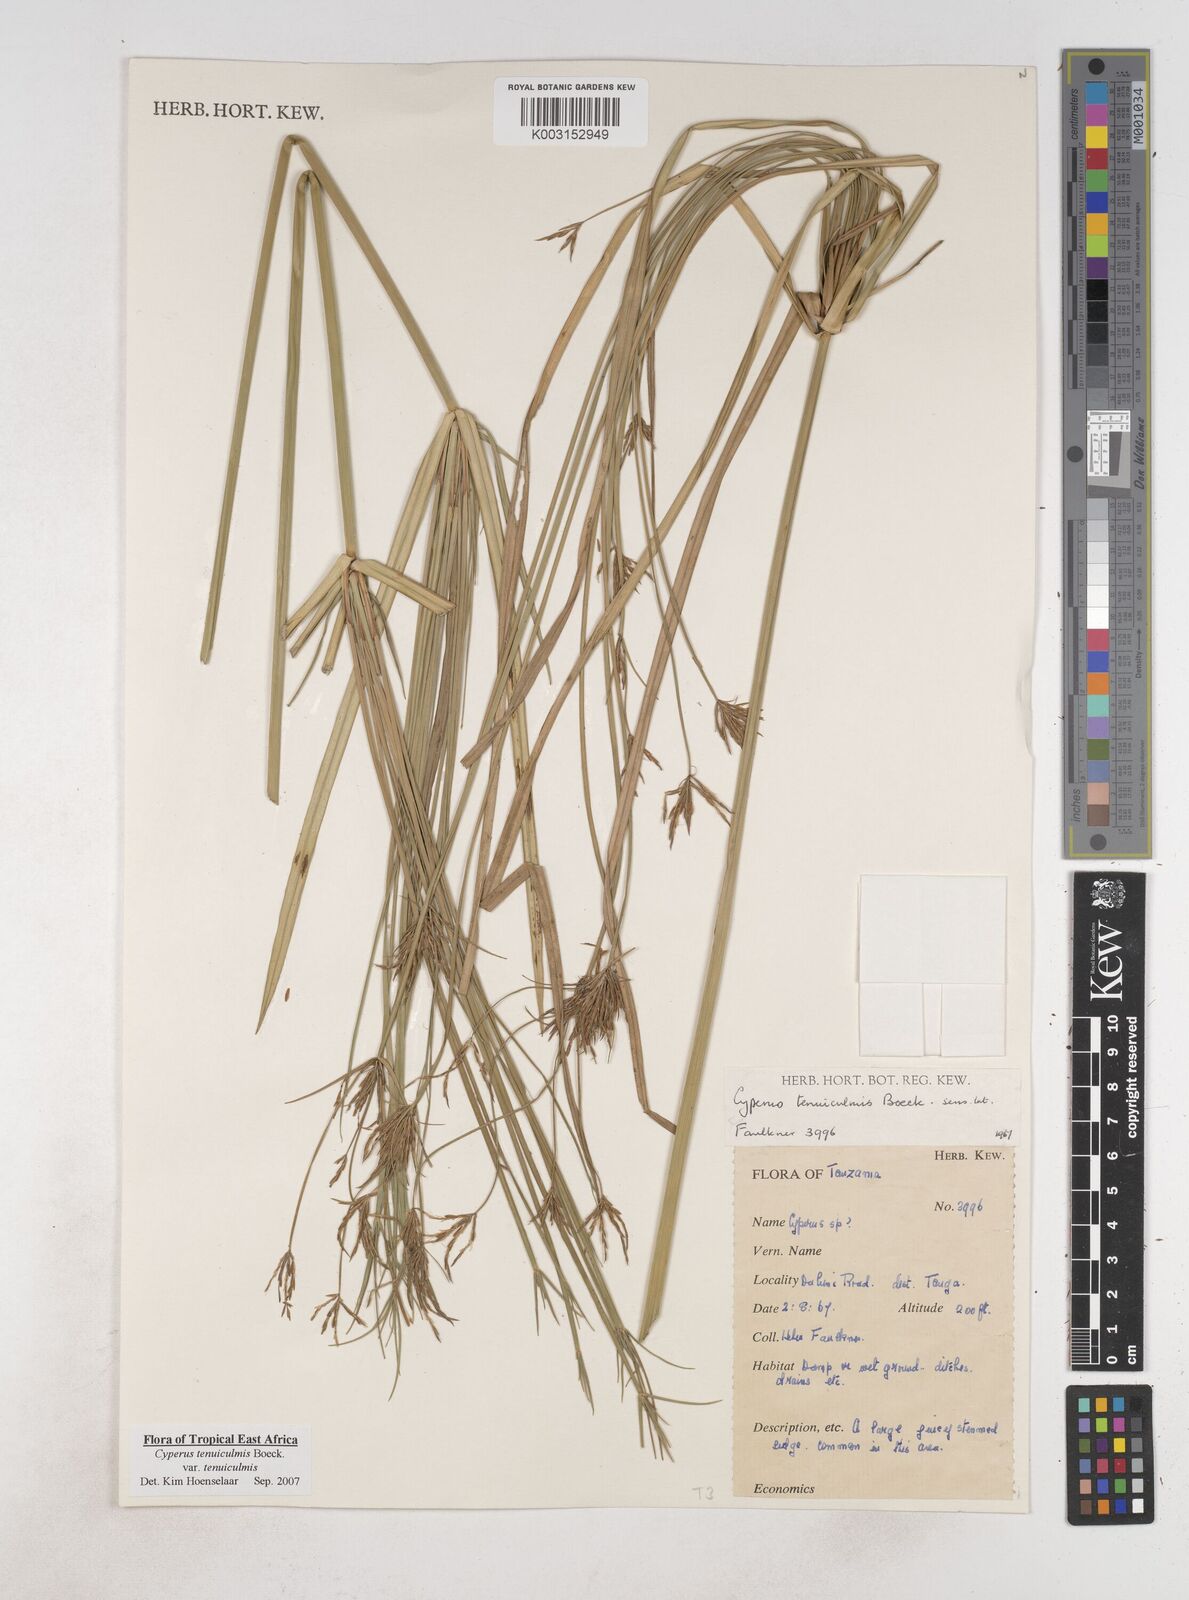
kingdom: Plantae
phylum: Tracheophyta
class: Liliopsida
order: Poales
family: Cyperaceae
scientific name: Cyperaceae
